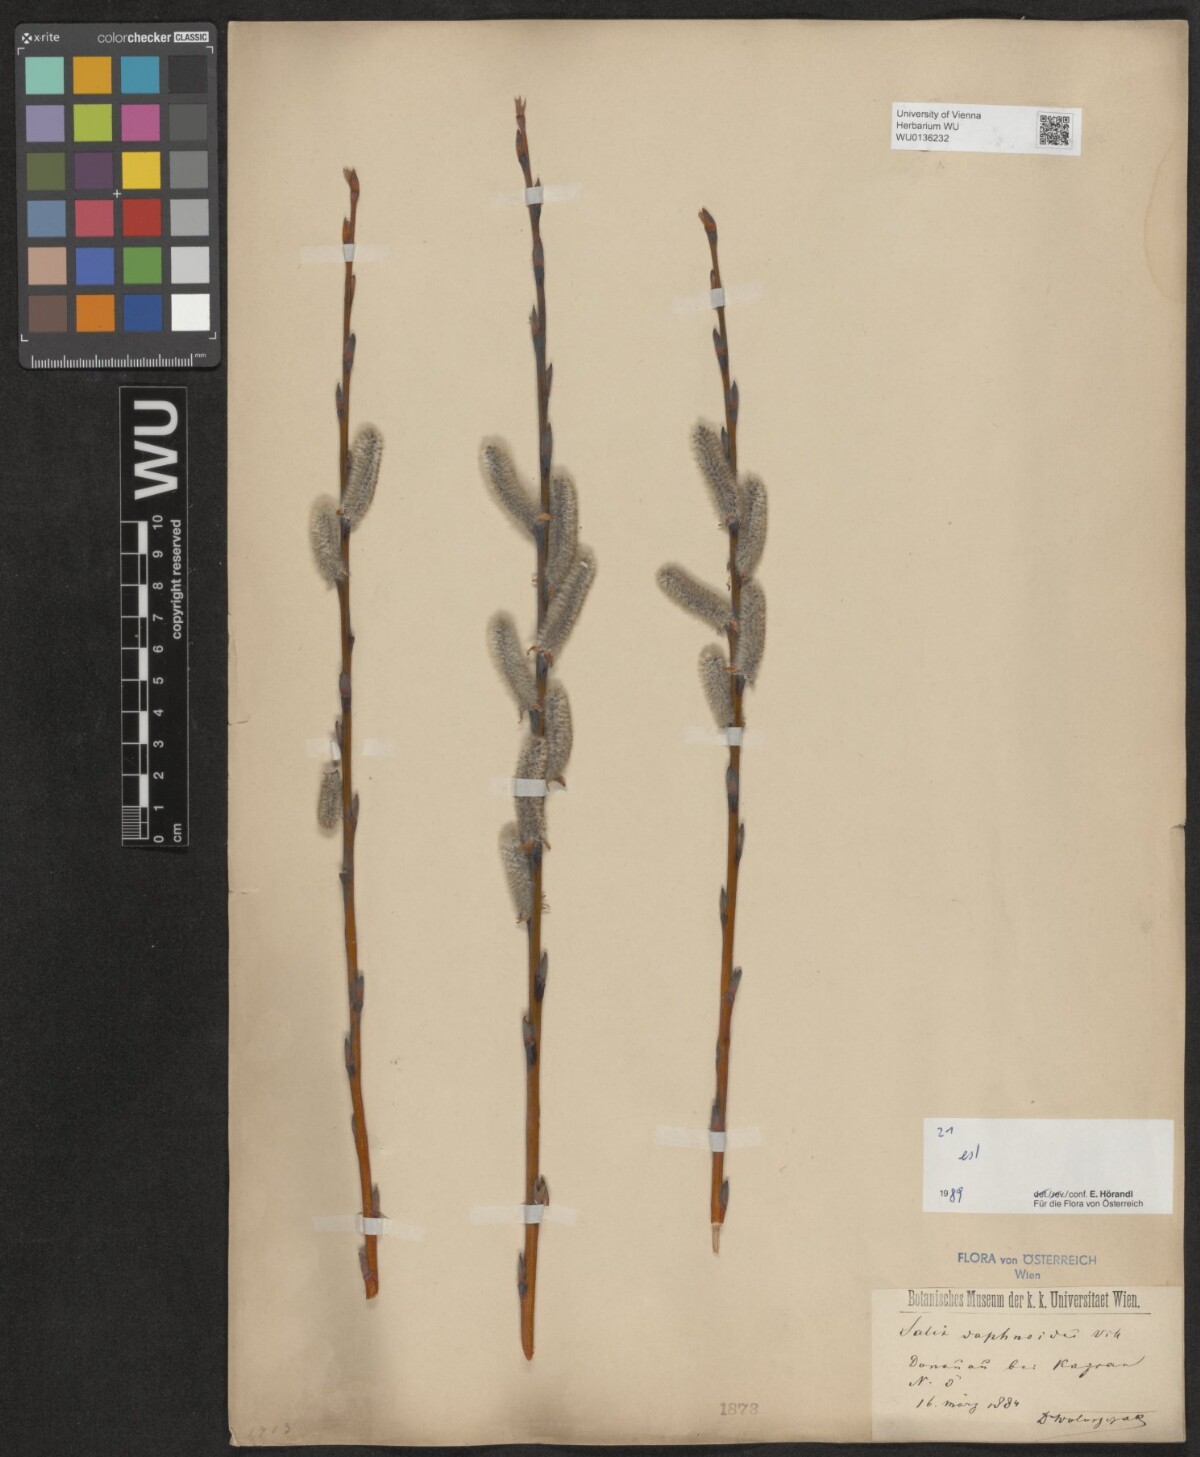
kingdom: Plantae
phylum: Tracheophyta
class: Magnoliopsida
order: Malpighiales
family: Salicaceae
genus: Salix
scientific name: Salix daphnoides
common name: European violet-willow
